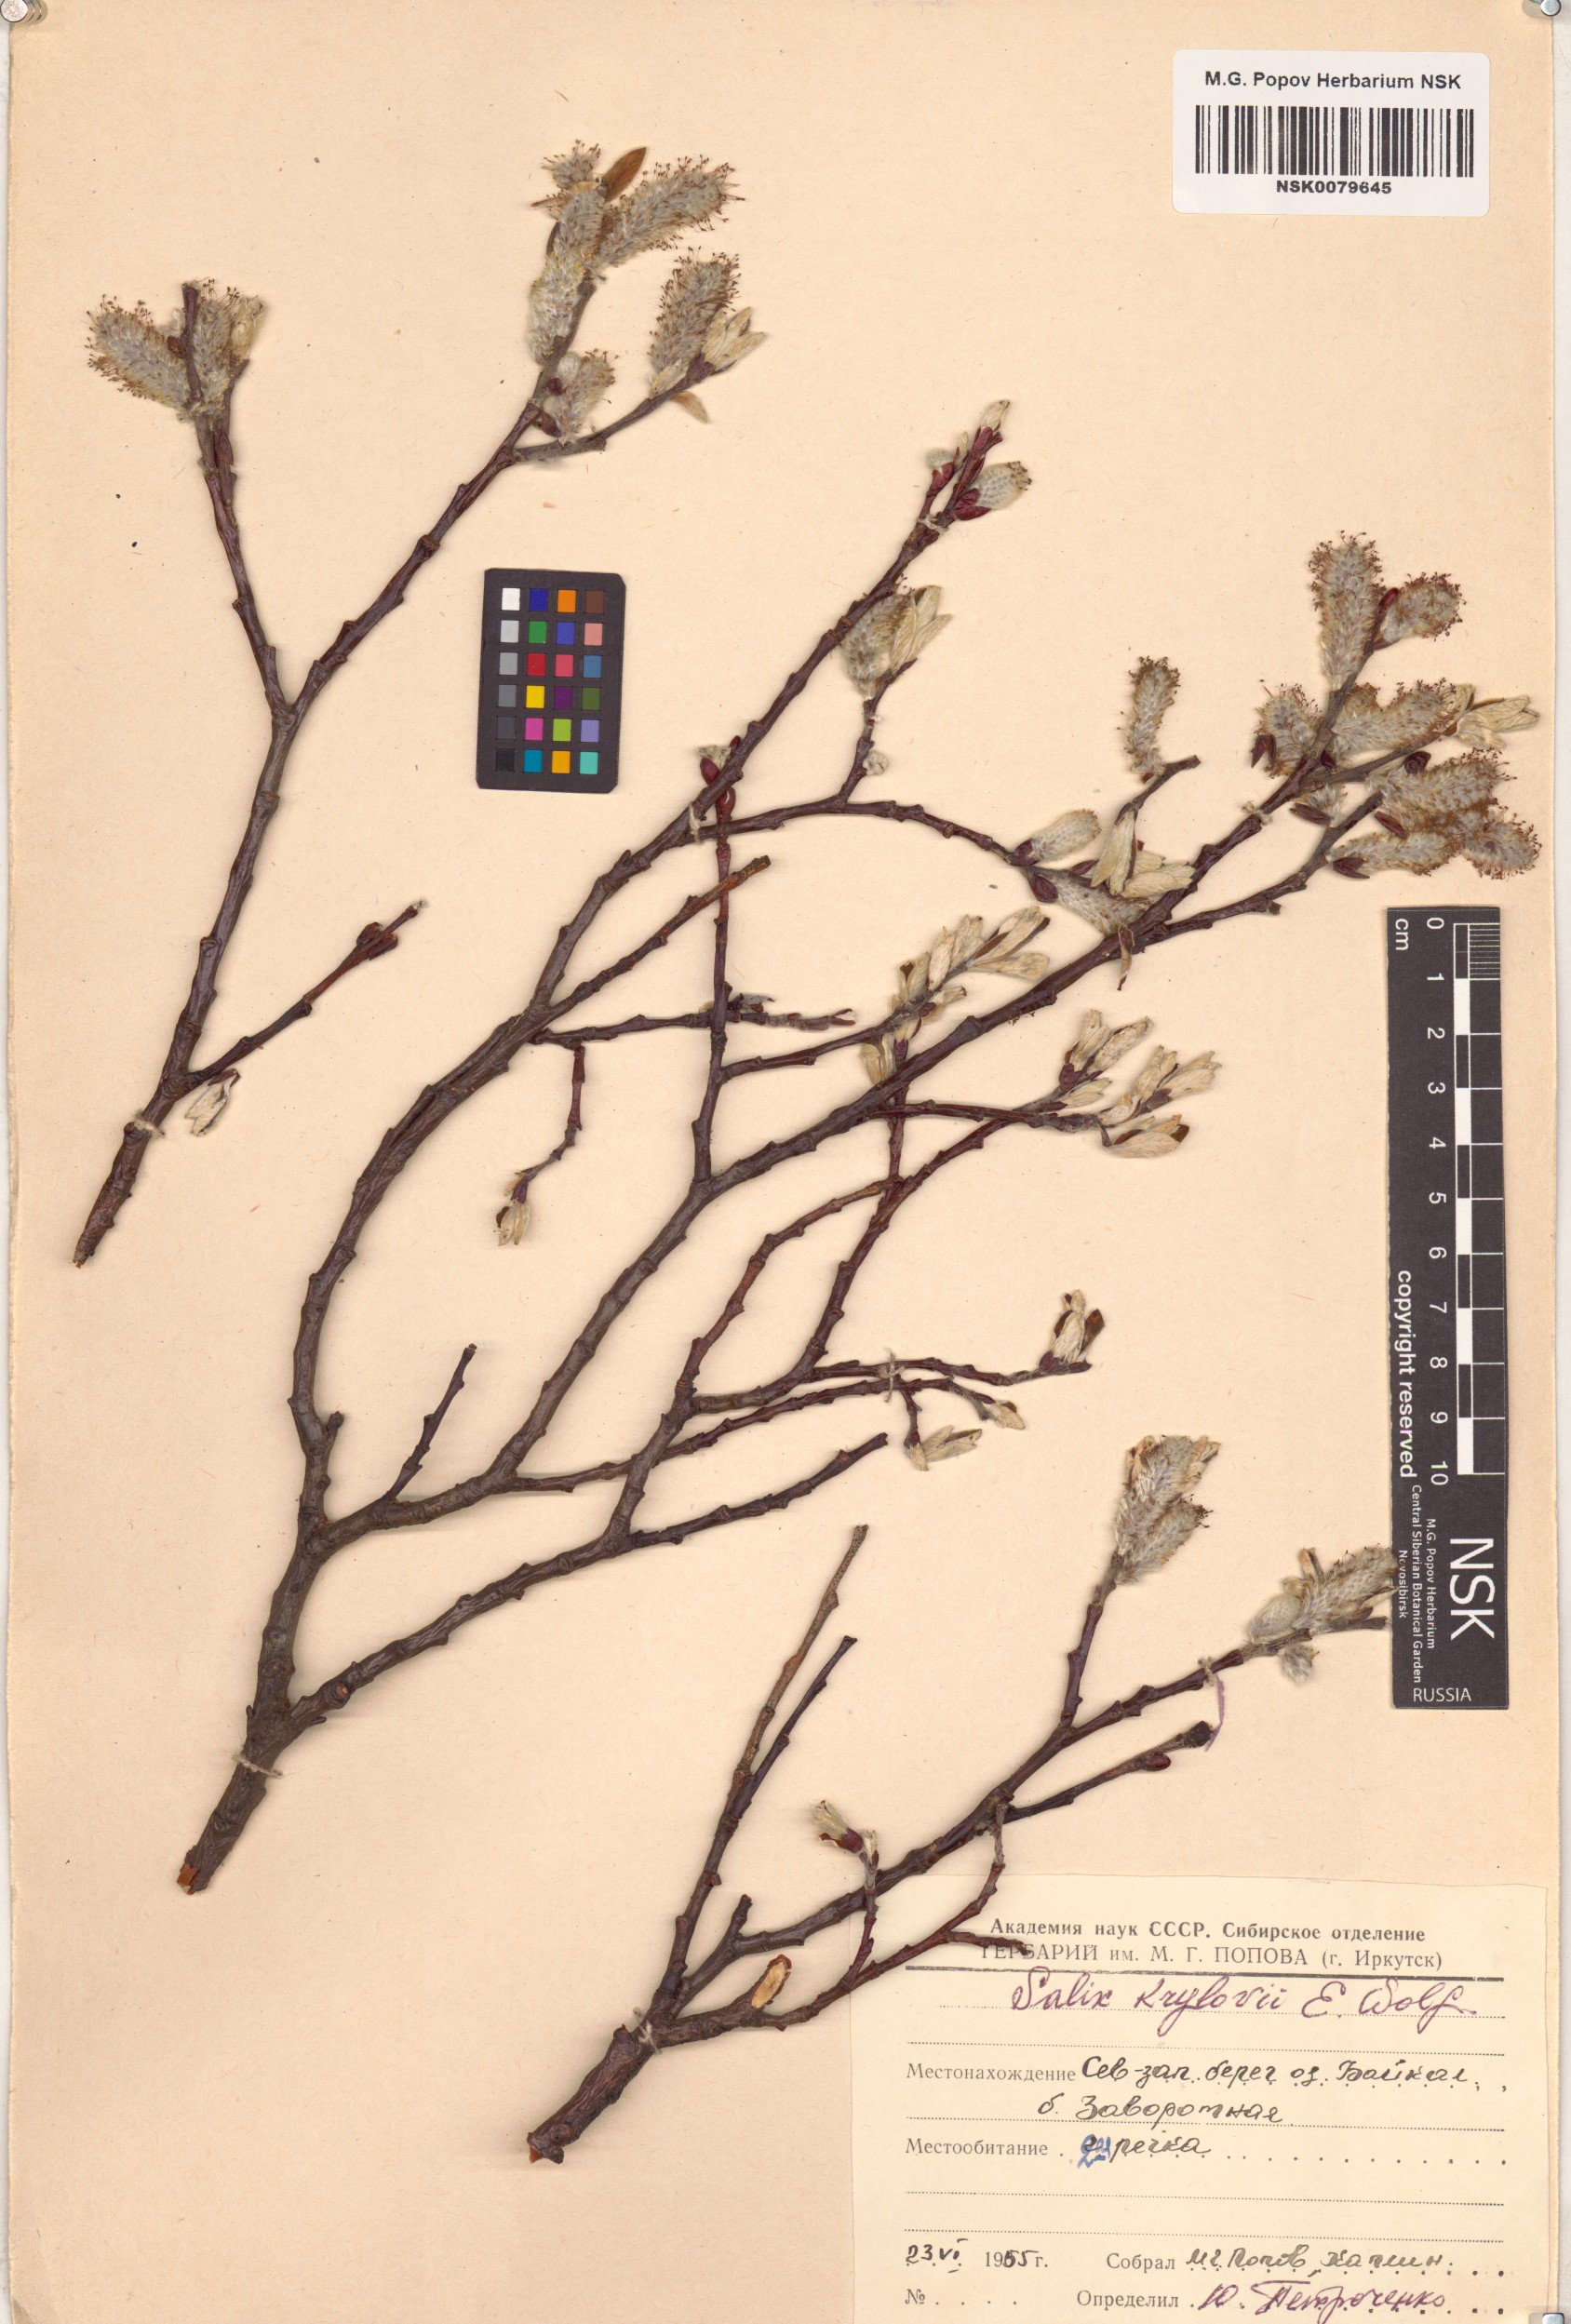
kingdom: Plantae
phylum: Tracheophyta
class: Magnoliopsida
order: Malpighiales
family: Salicaceae
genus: Salix
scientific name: Salix krylovii
